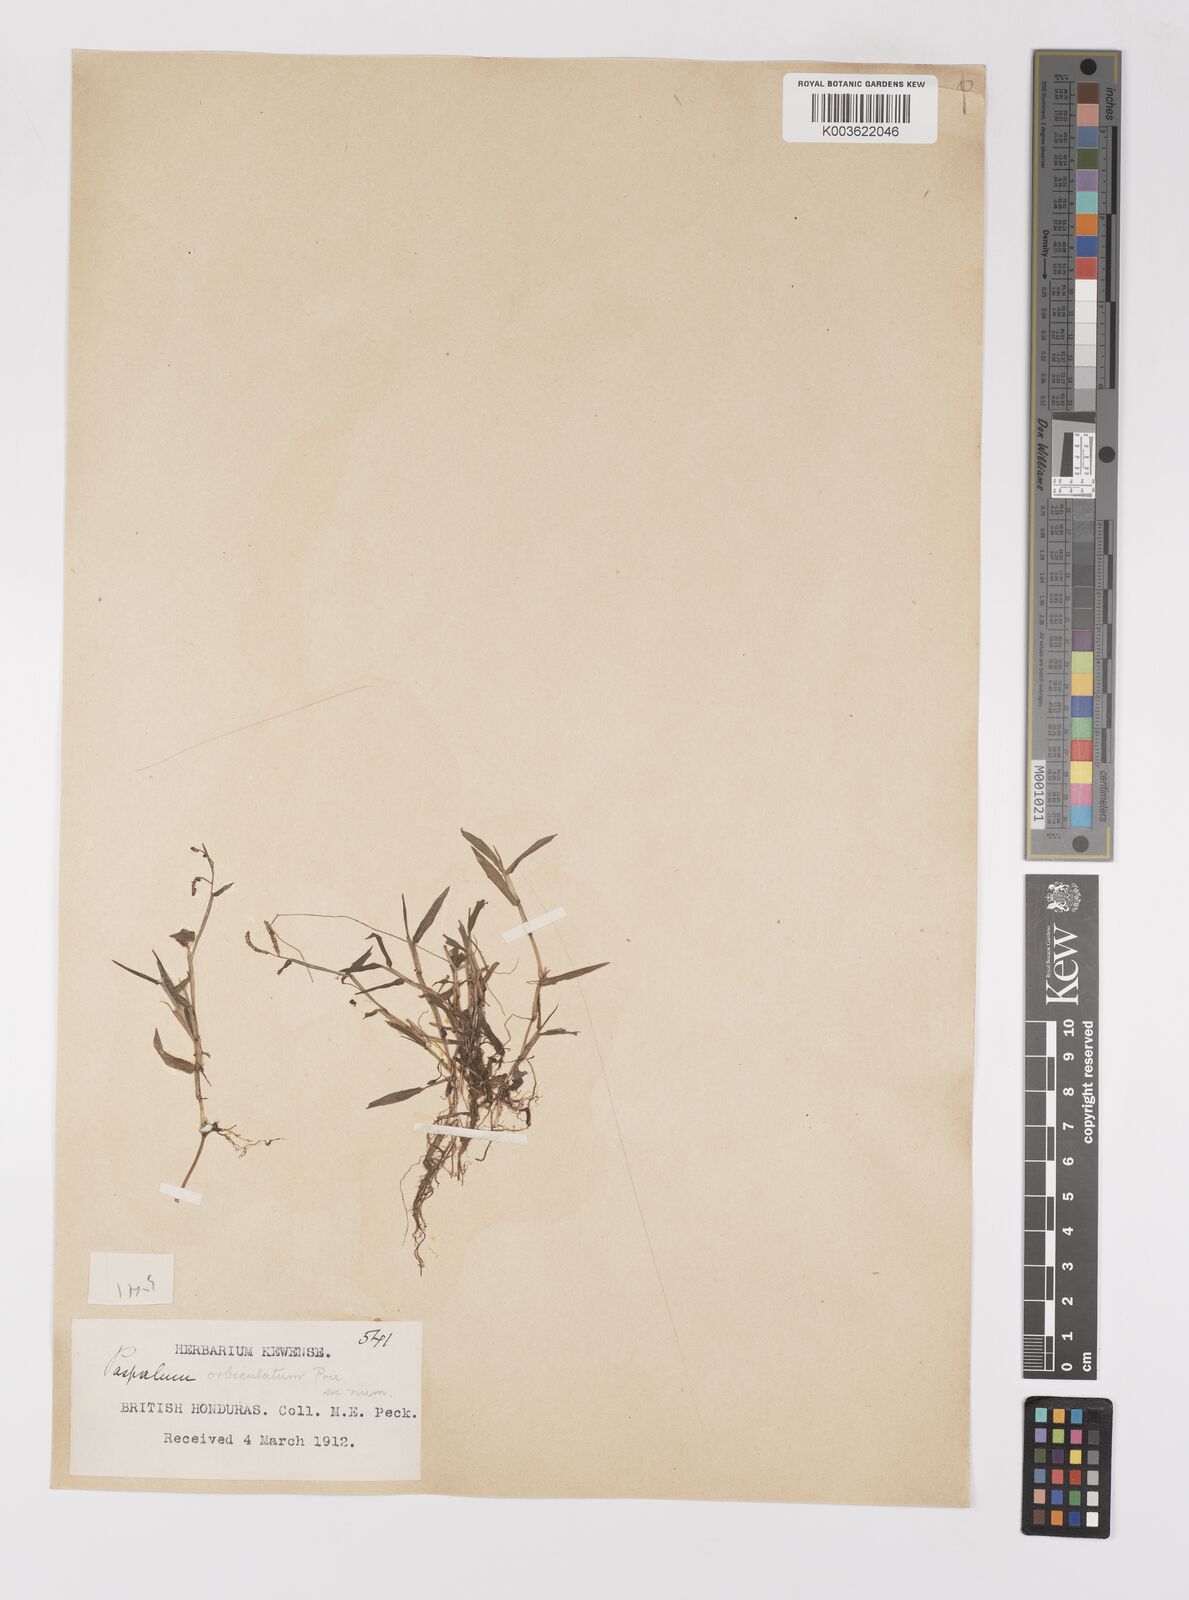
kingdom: Plantae
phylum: Tracheophyta
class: Liliopsida
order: Poales
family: Poaceae
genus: Paspalum
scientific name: Paspalum orbiculatum
